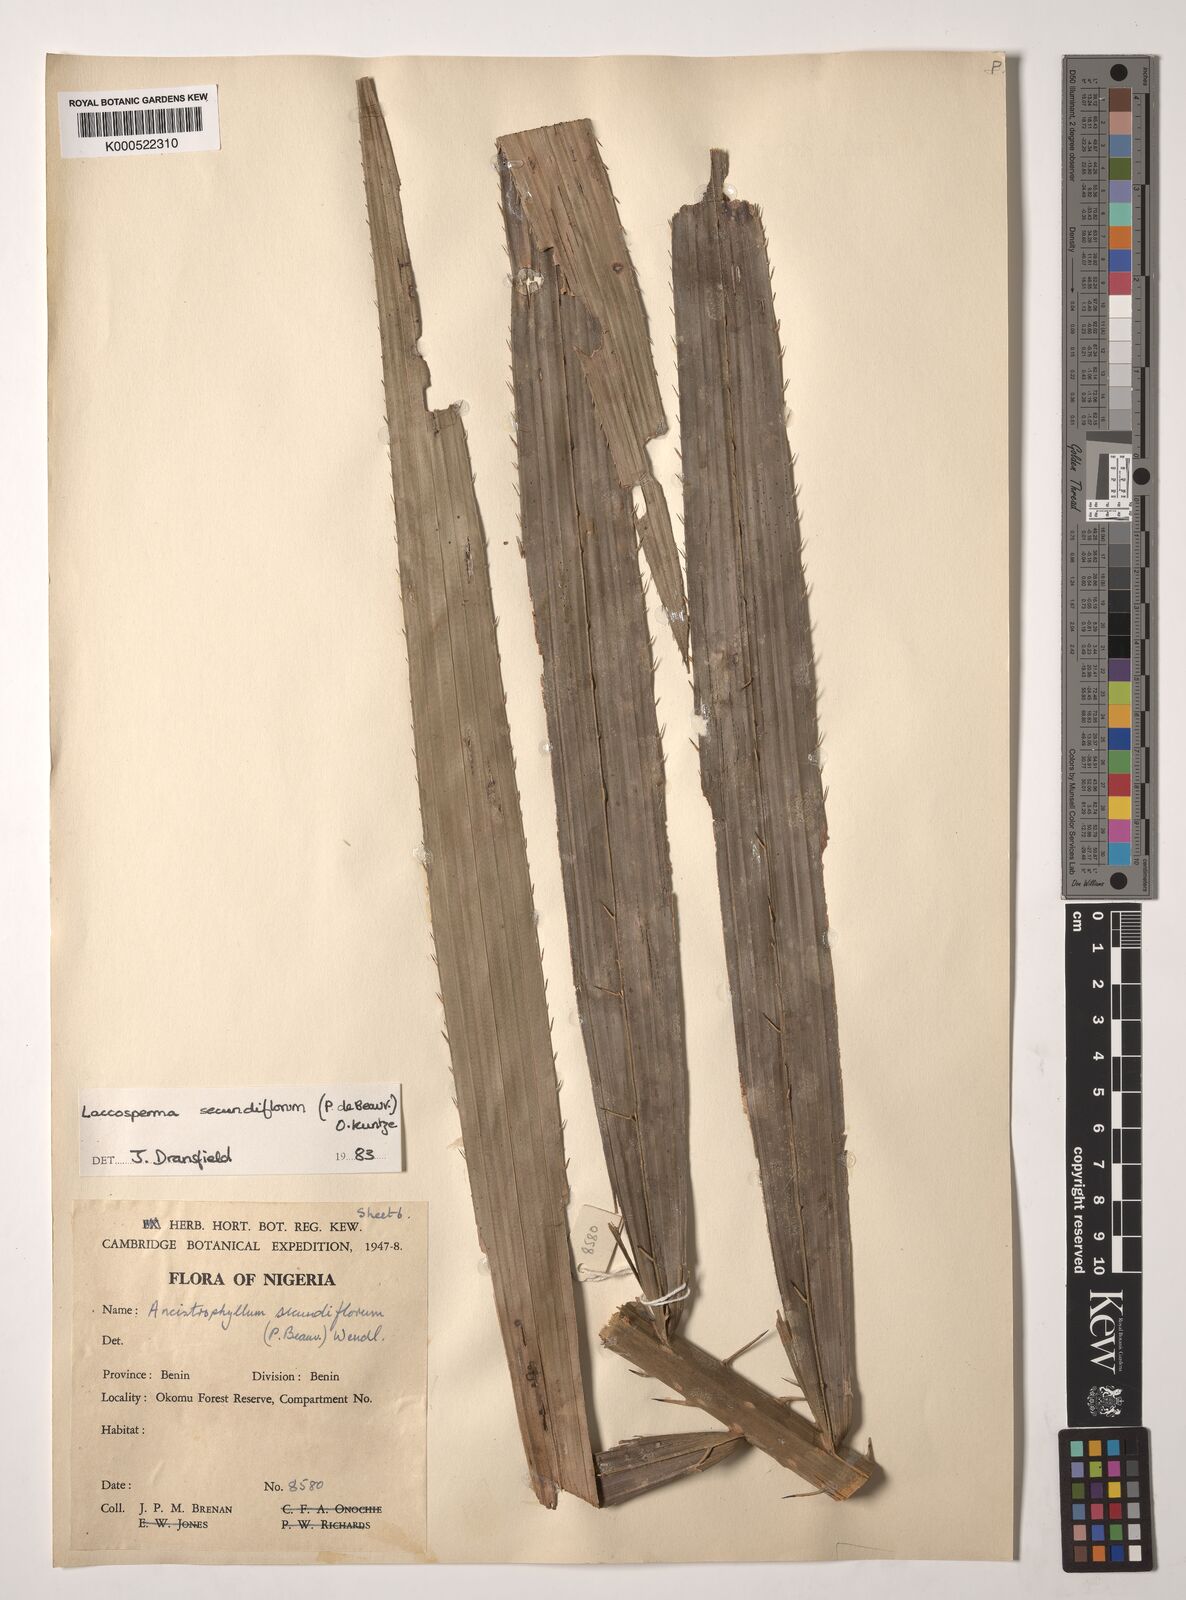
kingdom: Plantae
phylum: Tracheophyta
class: Liliopsida
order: Arecales
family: Arecaceae
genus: Laccosperma
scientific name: Laccosperma secundiflorum
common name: Rattan
